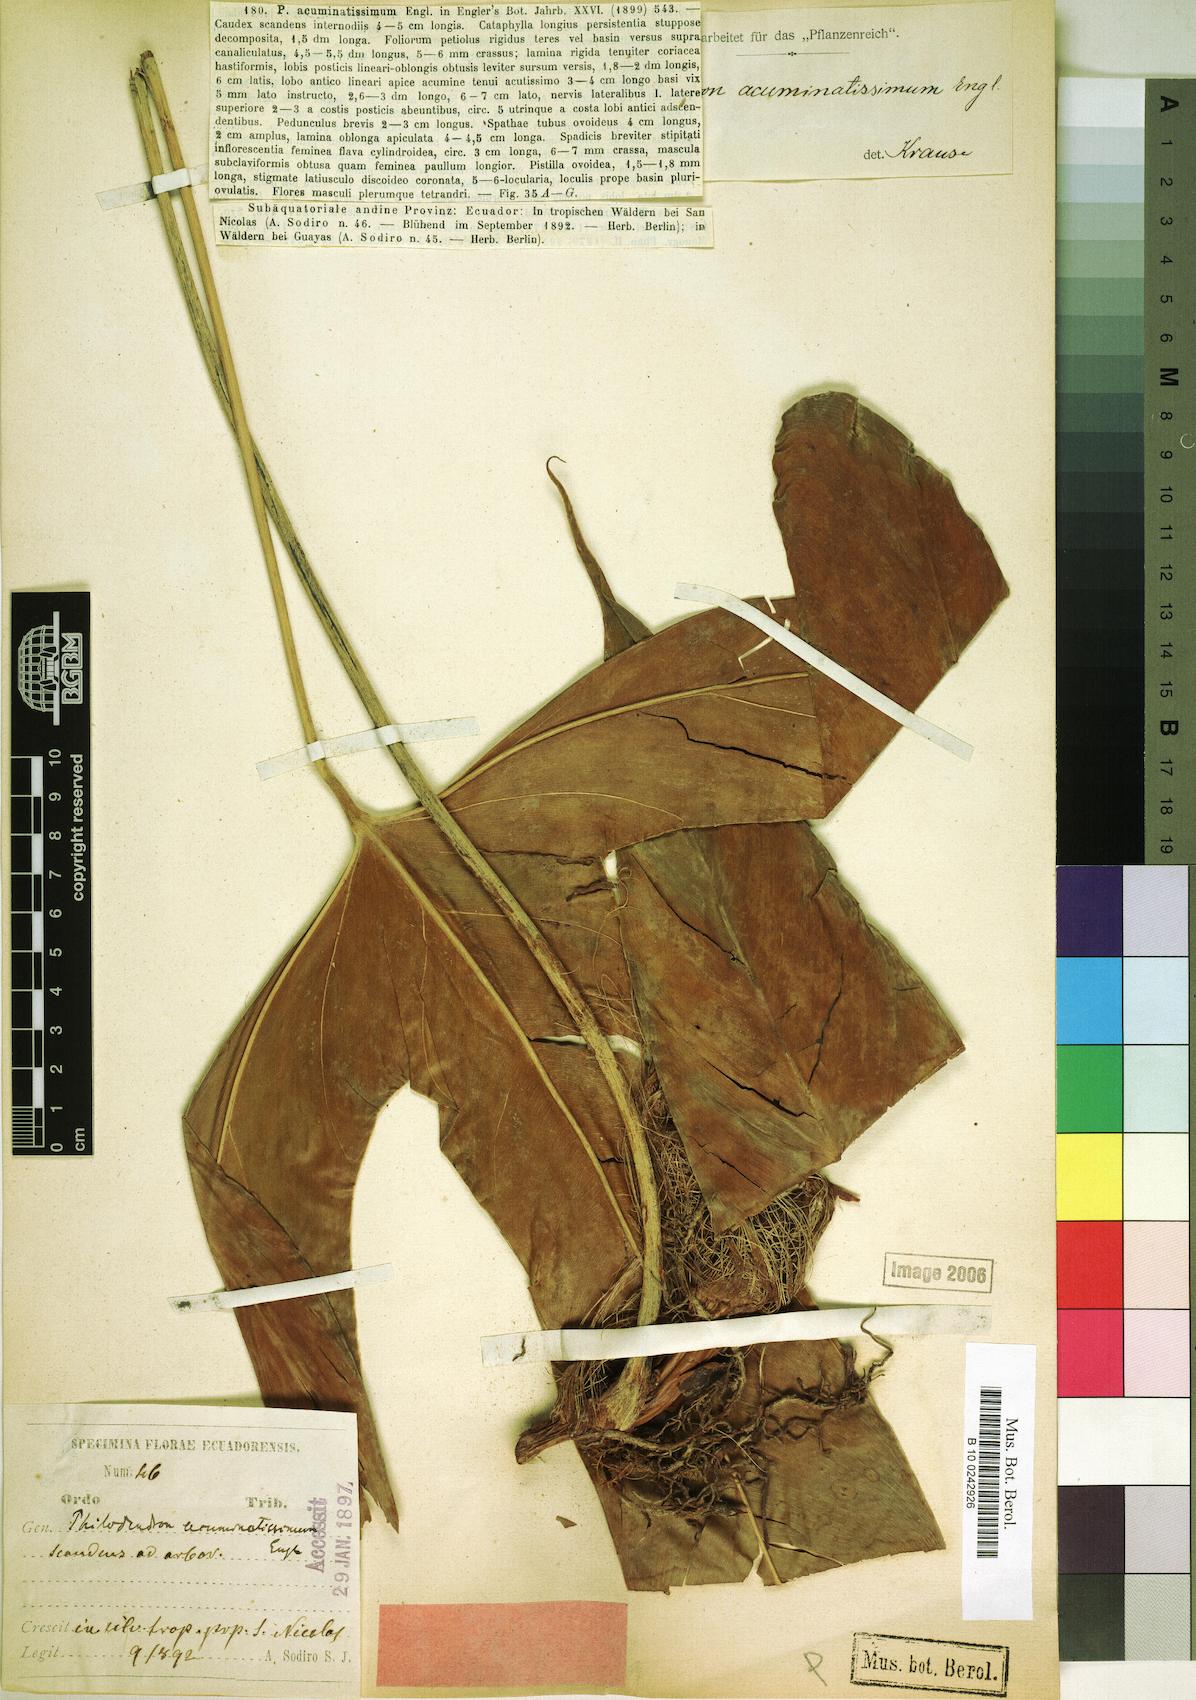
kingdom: Plantae
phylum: Tracheophyta
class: Liliopsida
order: Alismatales
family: Araceae
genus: Philodendron
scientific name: Philodendron acuminatissimum
